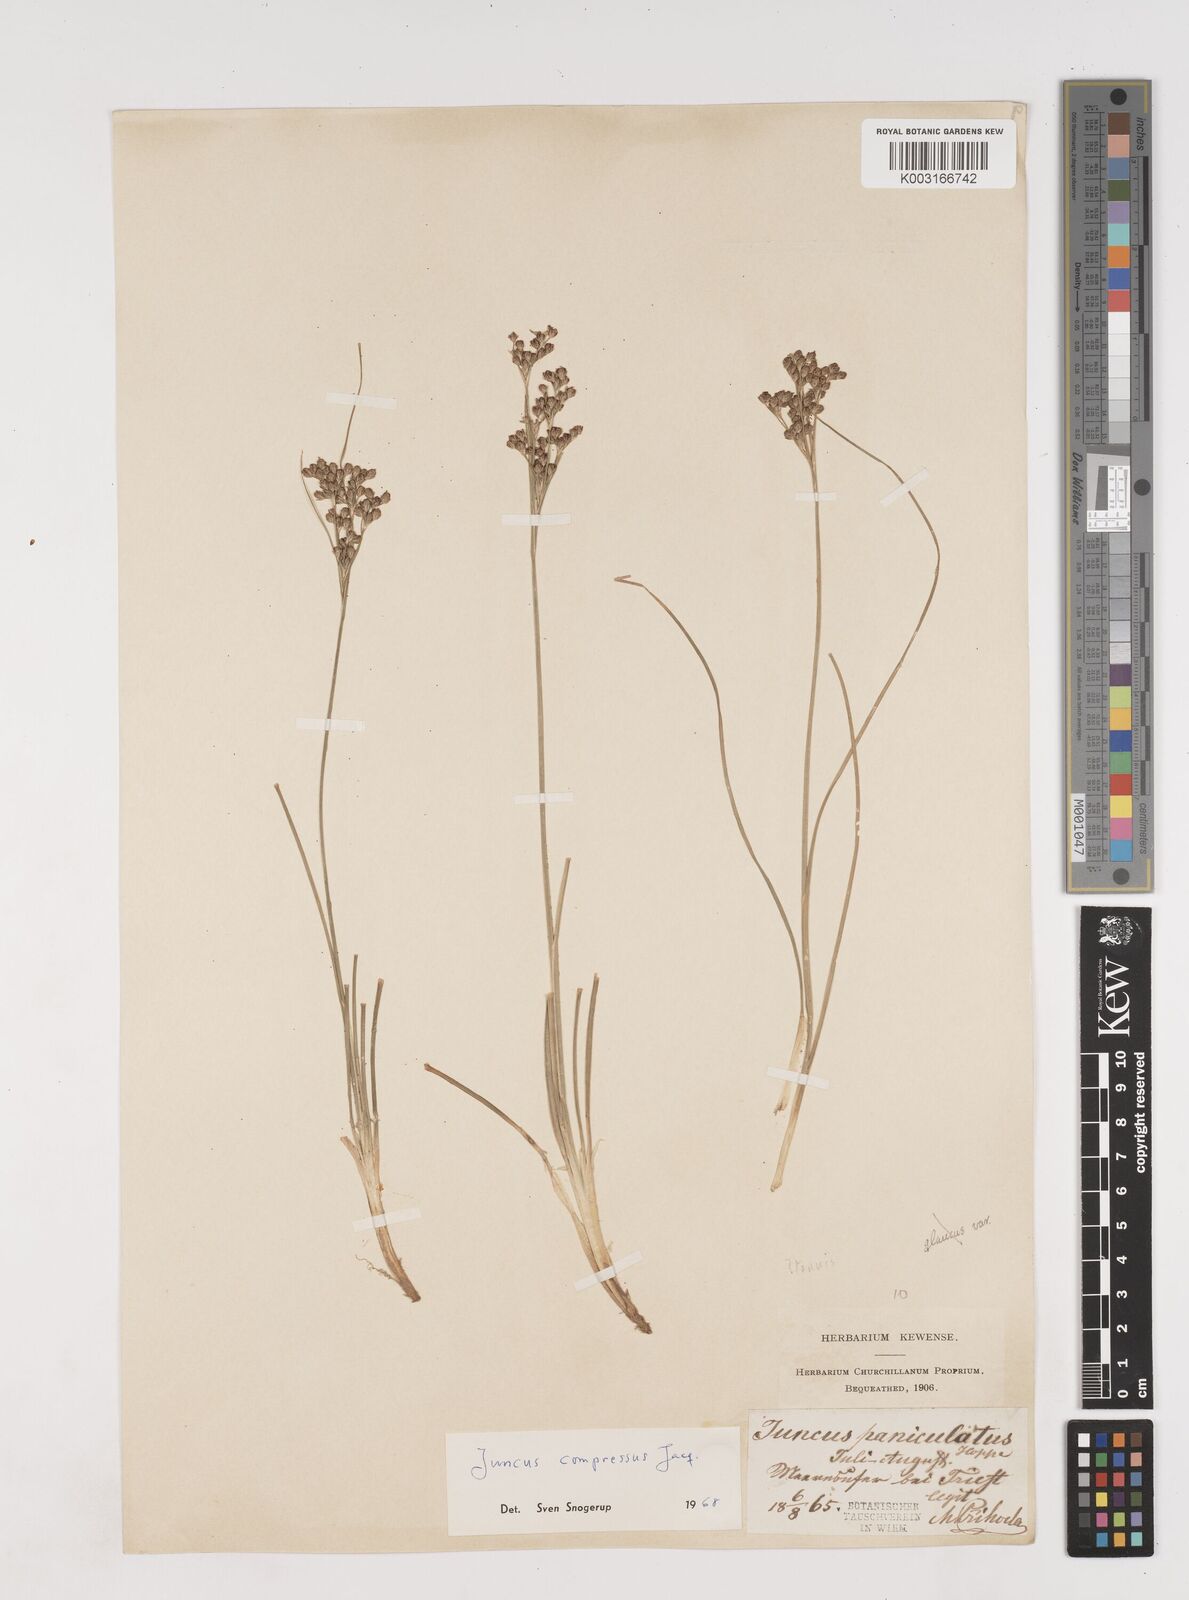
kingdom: Plantae
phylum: Tracheophyta
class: Liliopsida
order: Poales
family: Juncaceae
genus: Juncus
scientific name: Juncus
